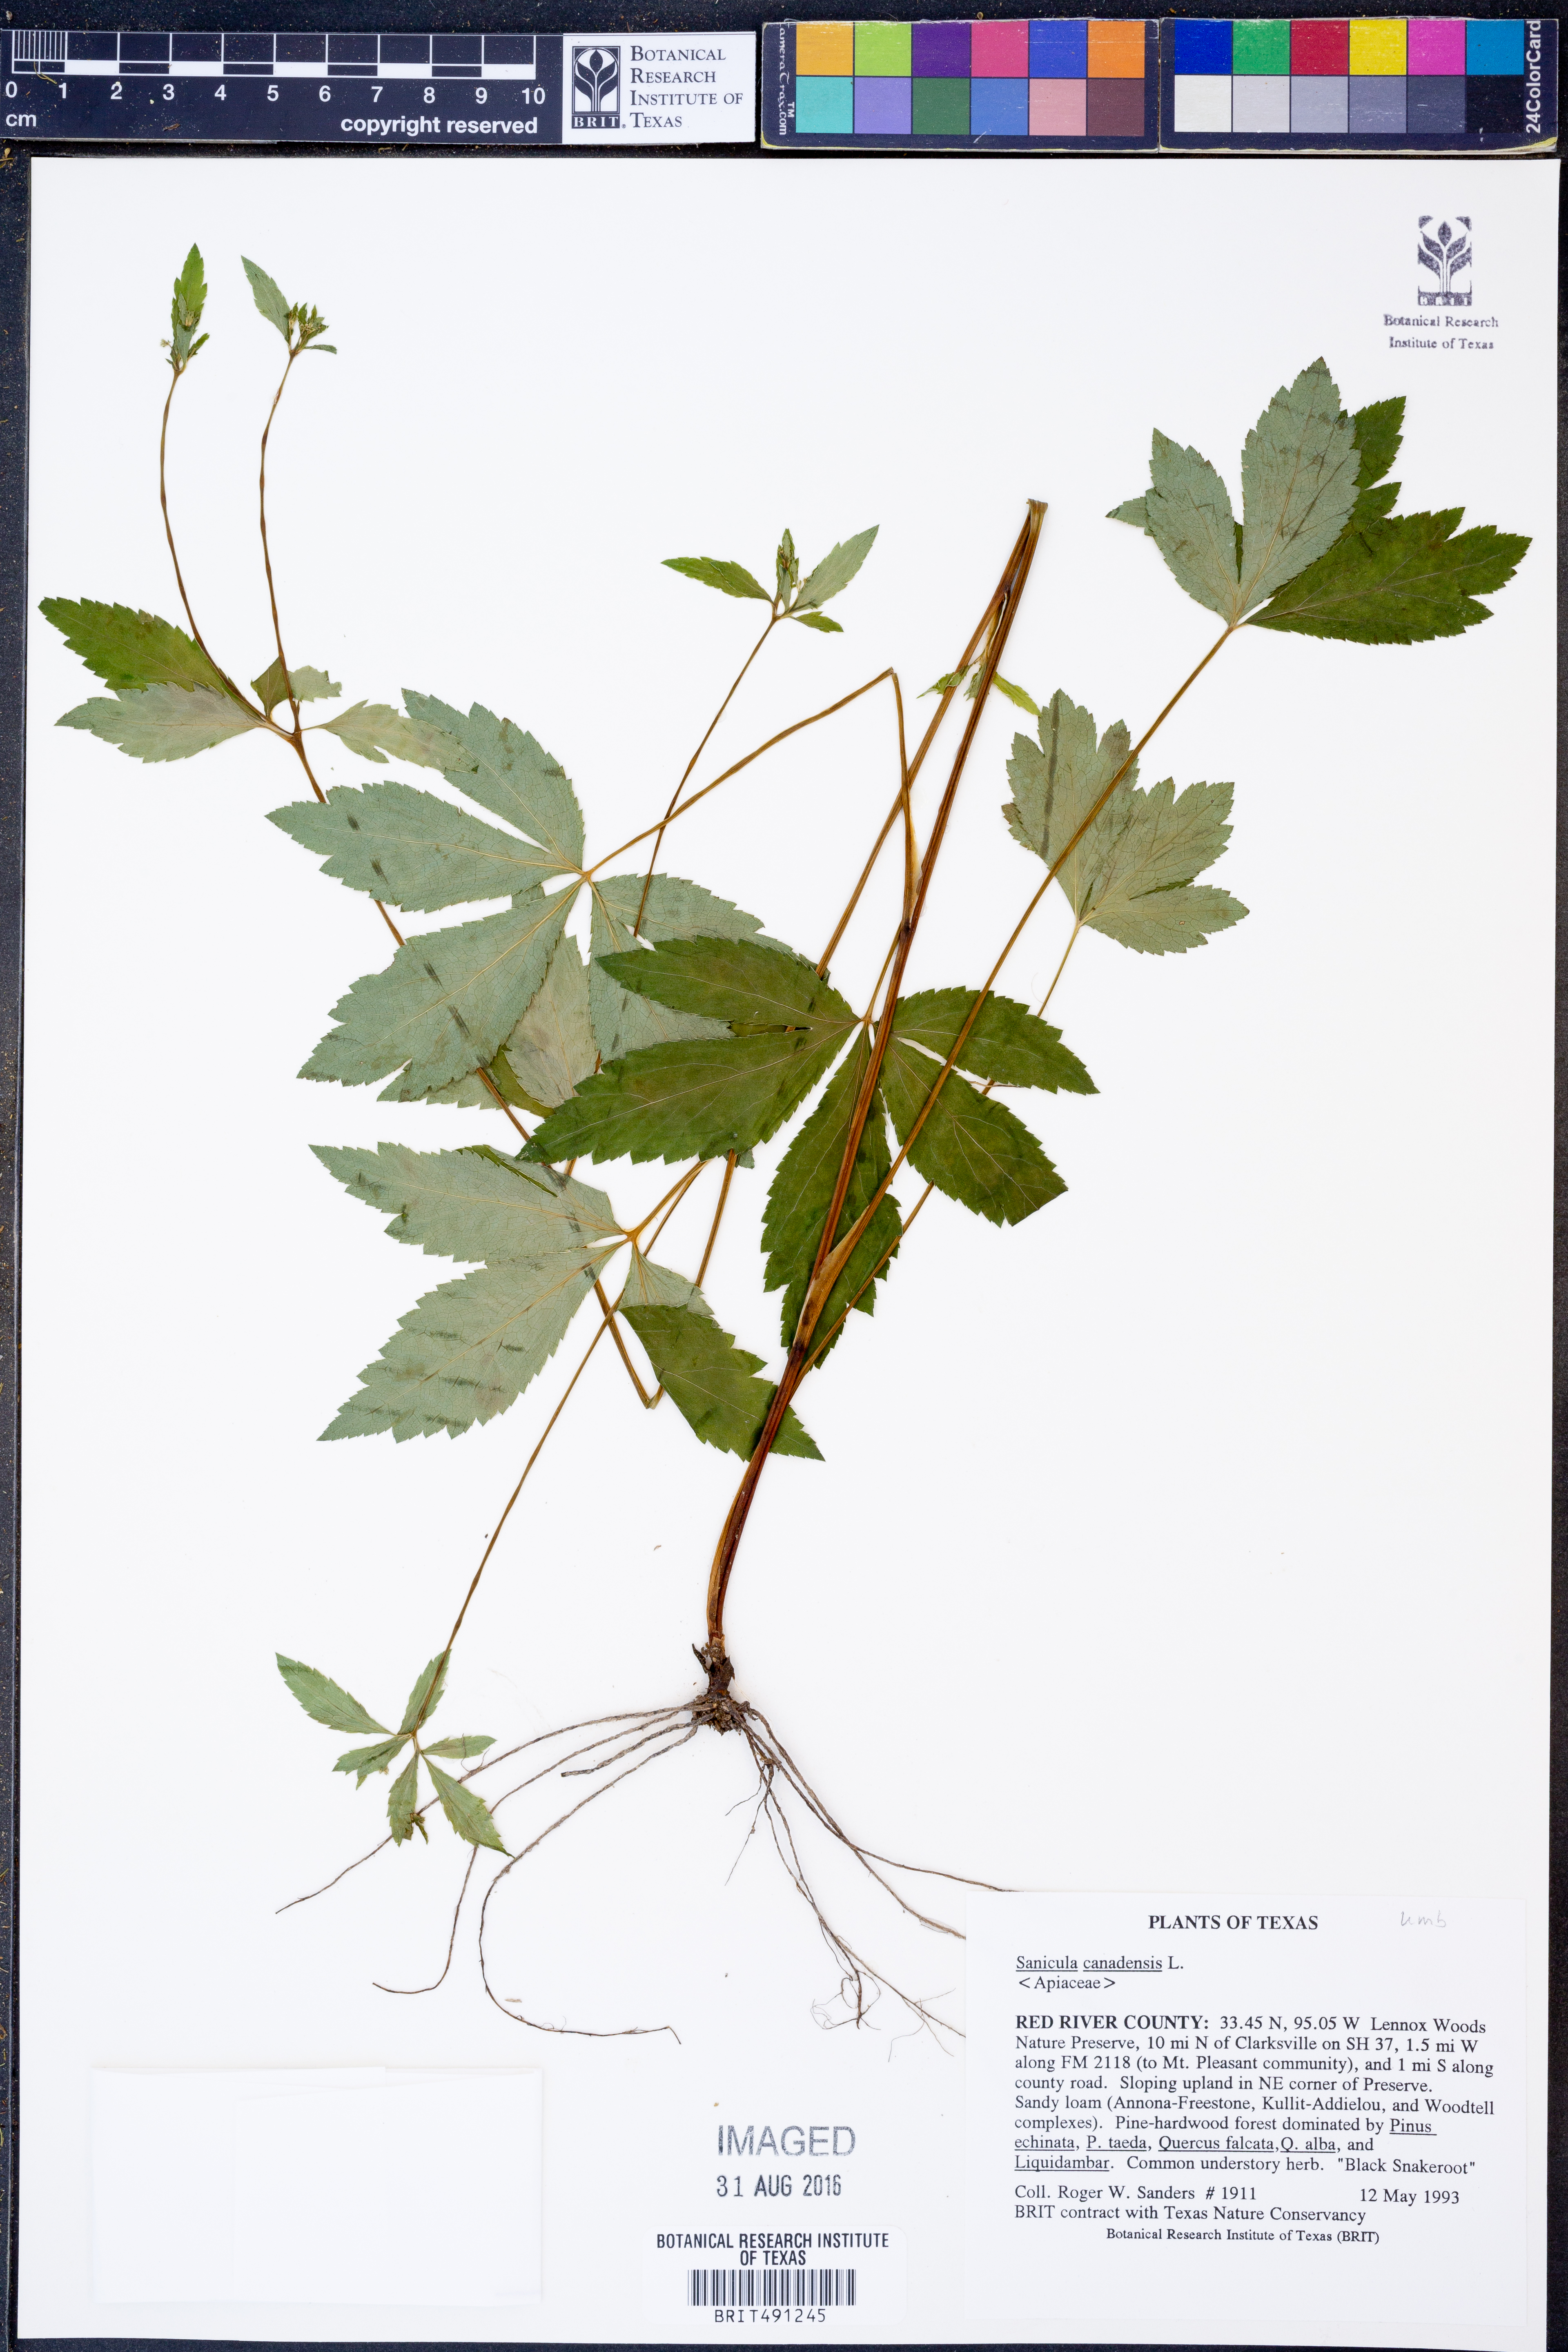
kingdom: Plantae
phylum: Tracheophyta
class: Magnoliopsida
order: Apiales
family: Apiaceae
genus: Sanicula
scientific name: Sanicula canadensis
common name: Canada sanicle
